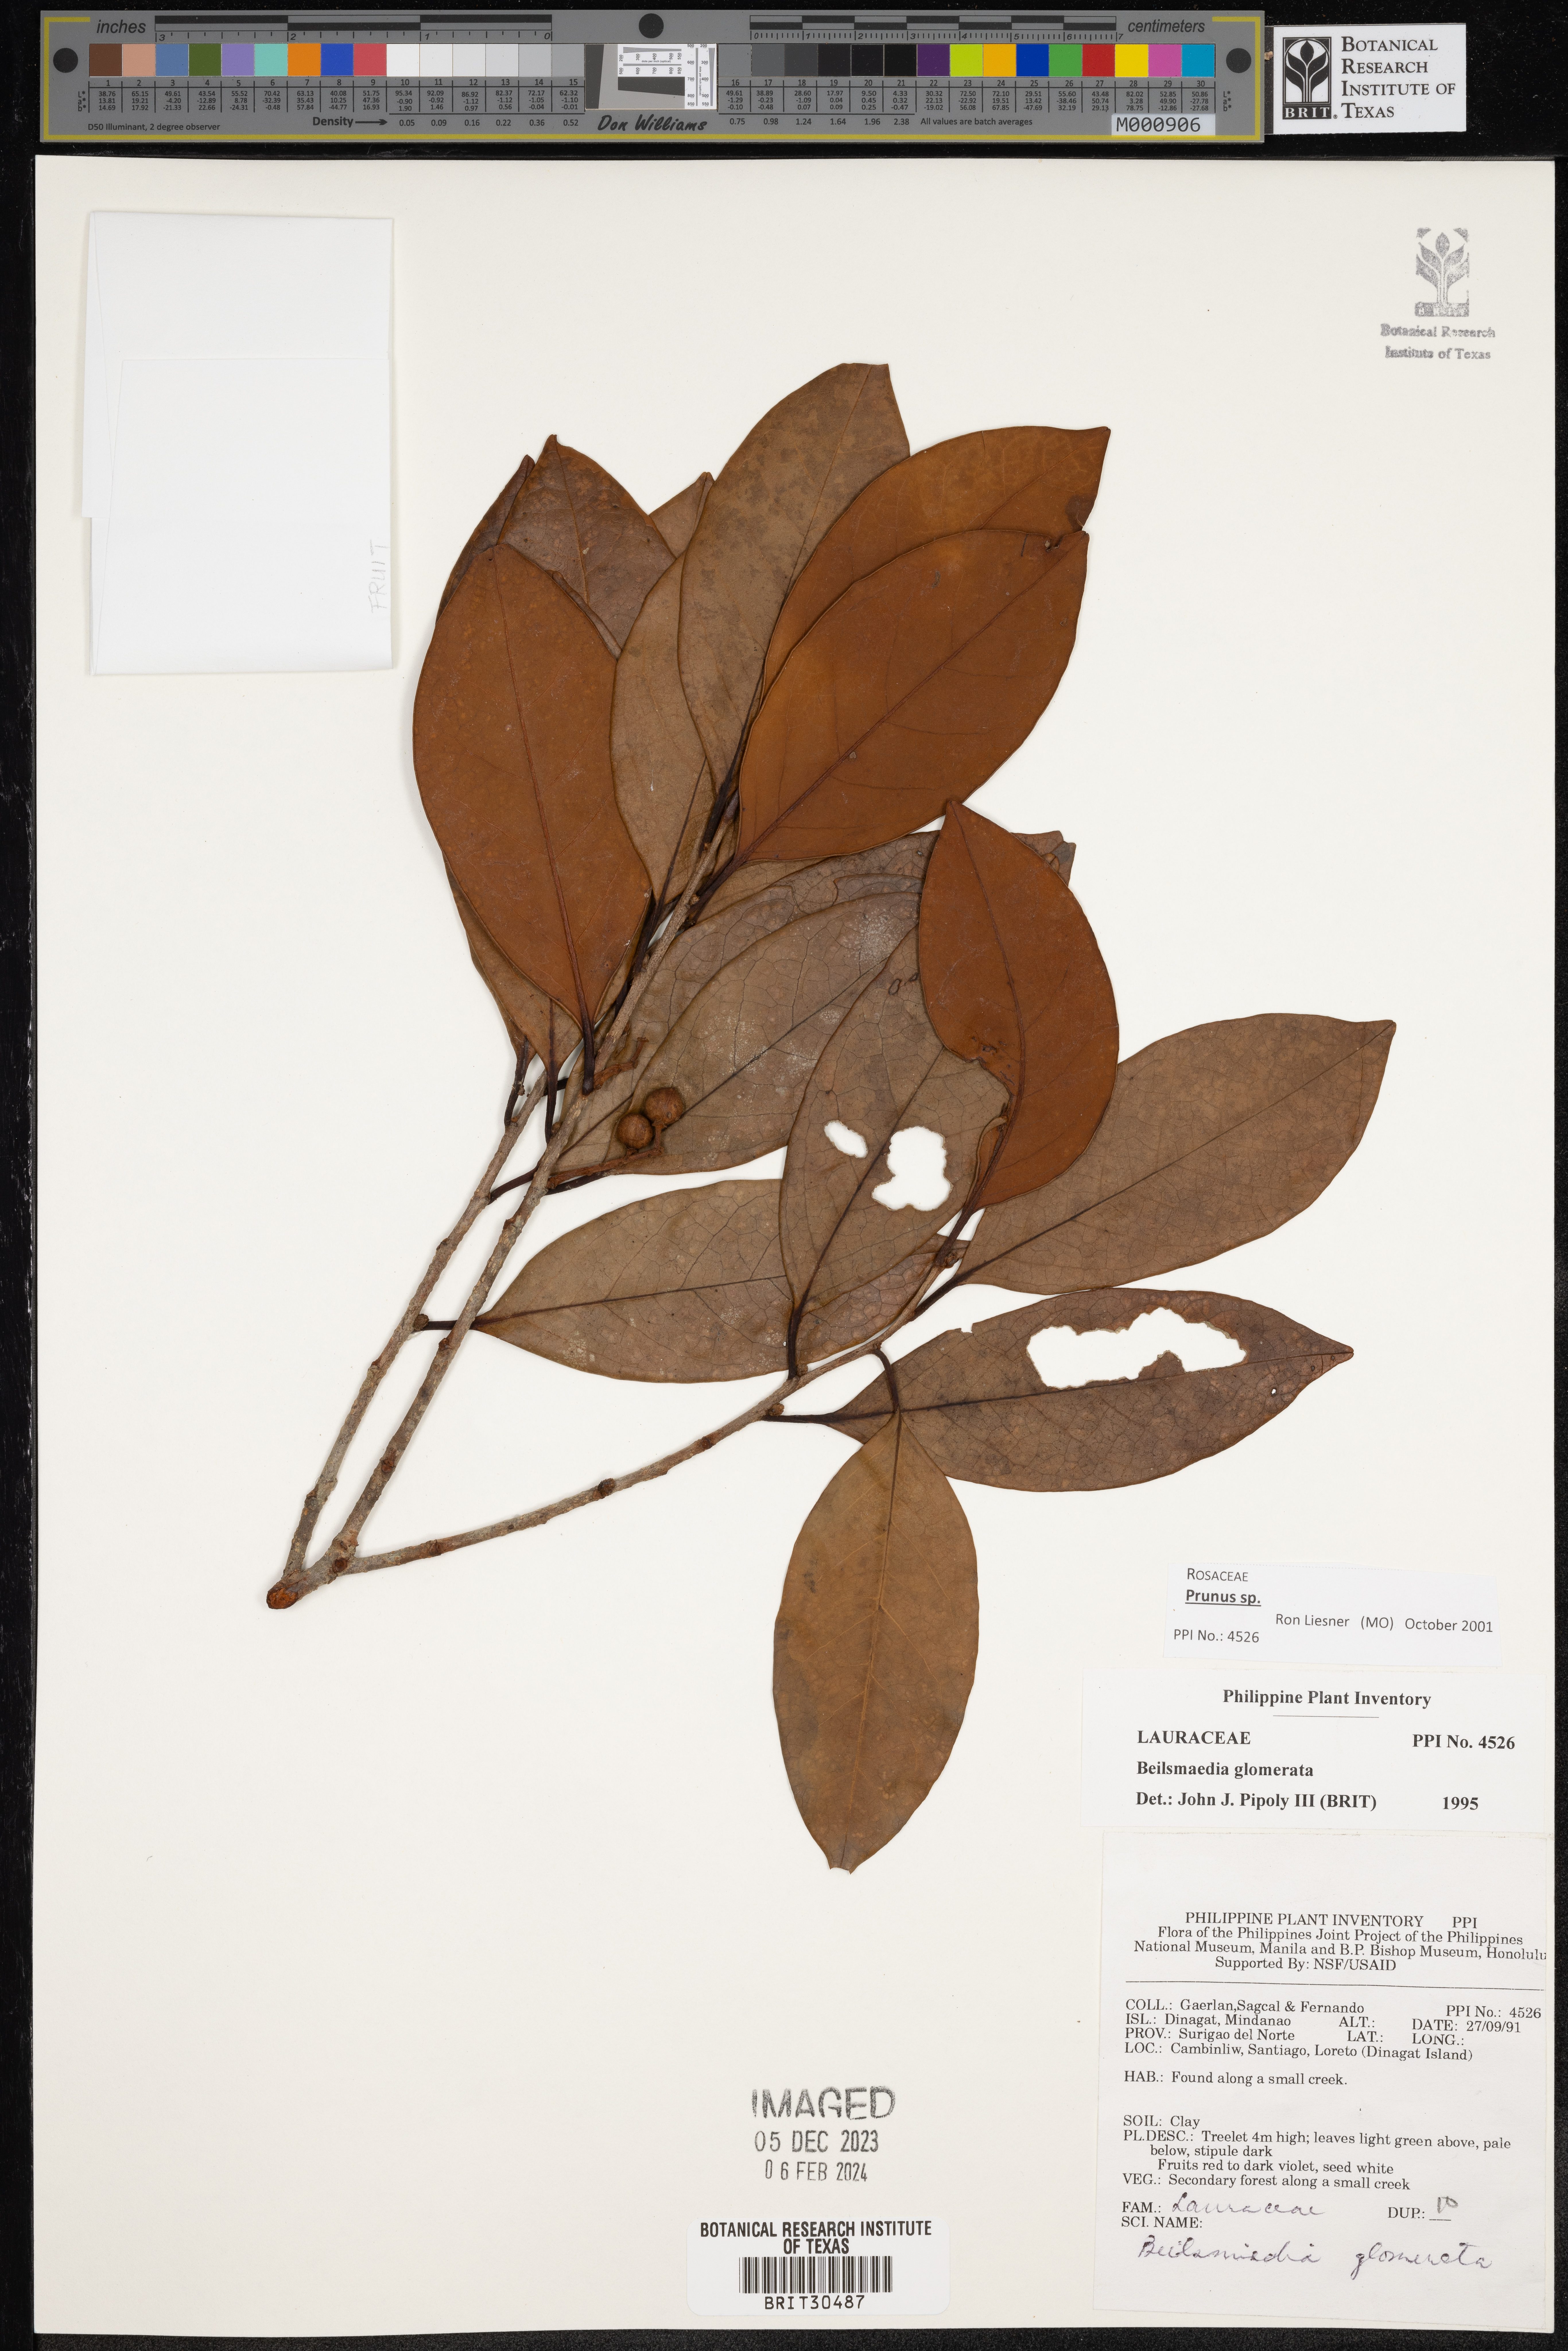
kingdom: Plantae
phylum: Tracheophyta
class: Magnoliopsida
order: Laurales
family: Lauraceae
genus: Beilschmiedia
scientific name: Beilschmiedia gemmiflora
